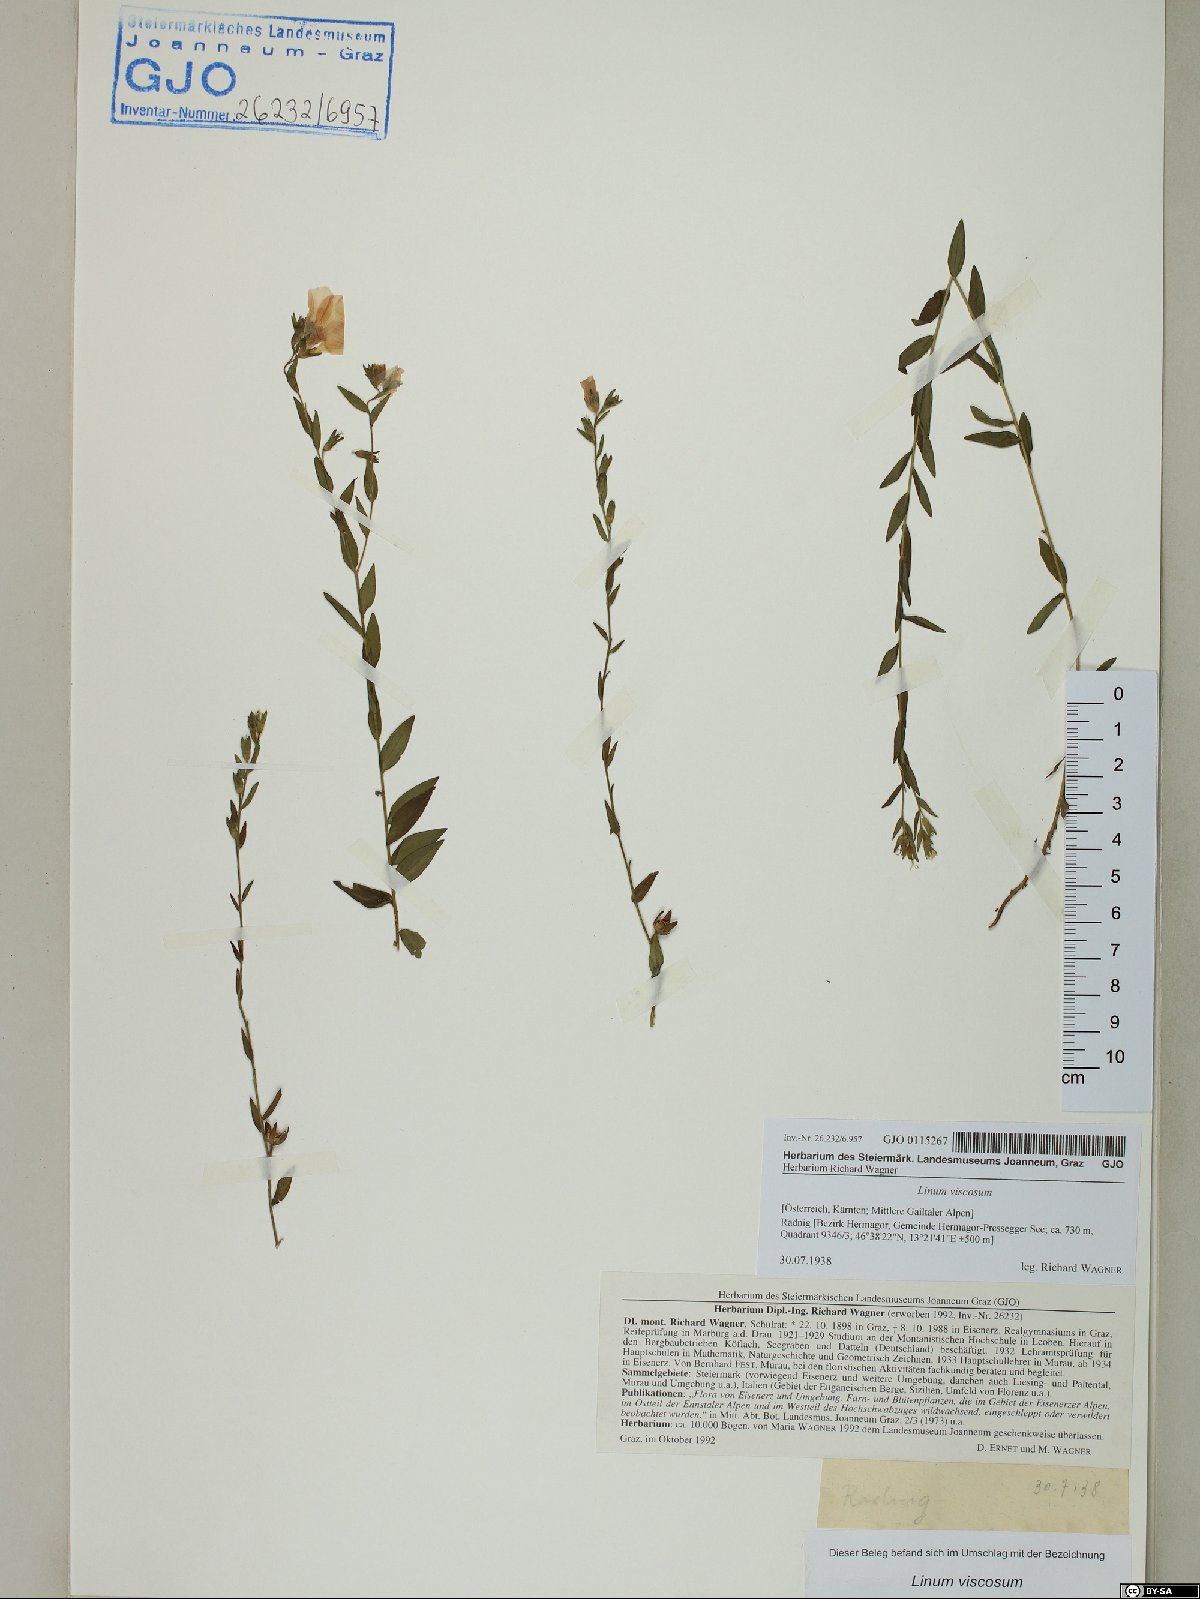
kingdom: Plantae
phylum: Tracheophyta
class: Magnoliopsida
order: Malpighiales
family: Linaceae
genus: Linum
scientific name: Linum viscosum
